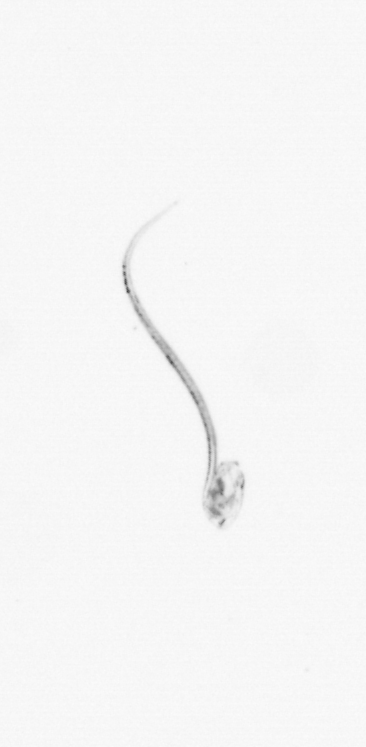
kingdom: Animalia
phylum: Chordata
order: Copelata
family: Fritillariidae
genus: Appendicularia
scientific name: Appendicularia
